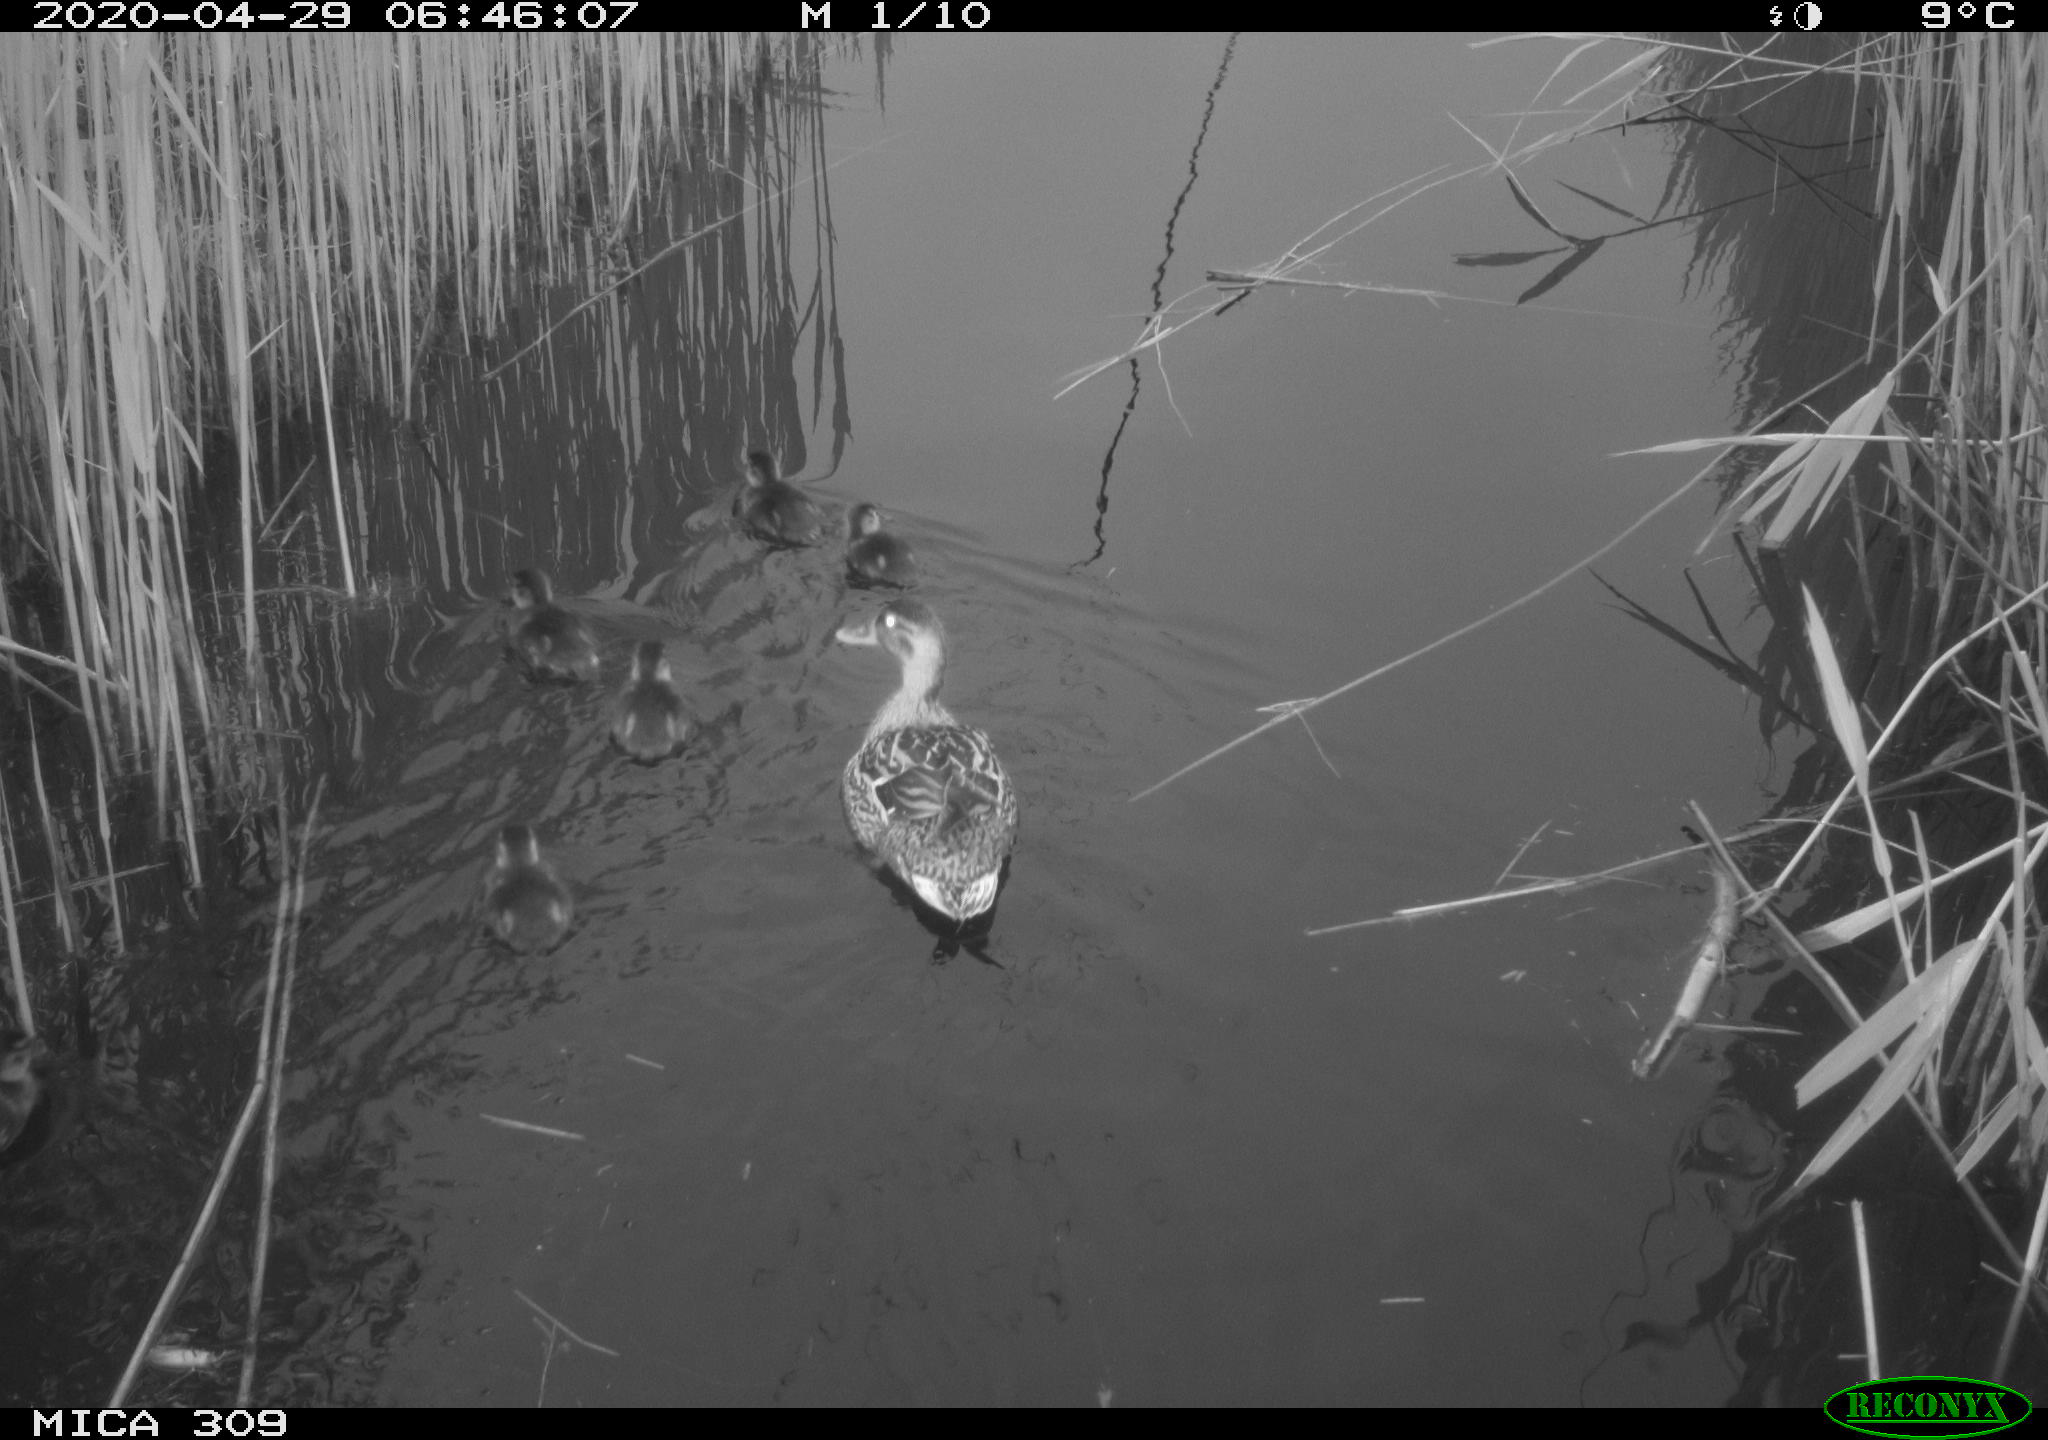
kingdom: Animalia
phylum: Chordata
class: Aves
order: Anseriformes
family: Anatidae
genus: Anas
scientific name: Anas platyrhynchos
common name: Mallard
